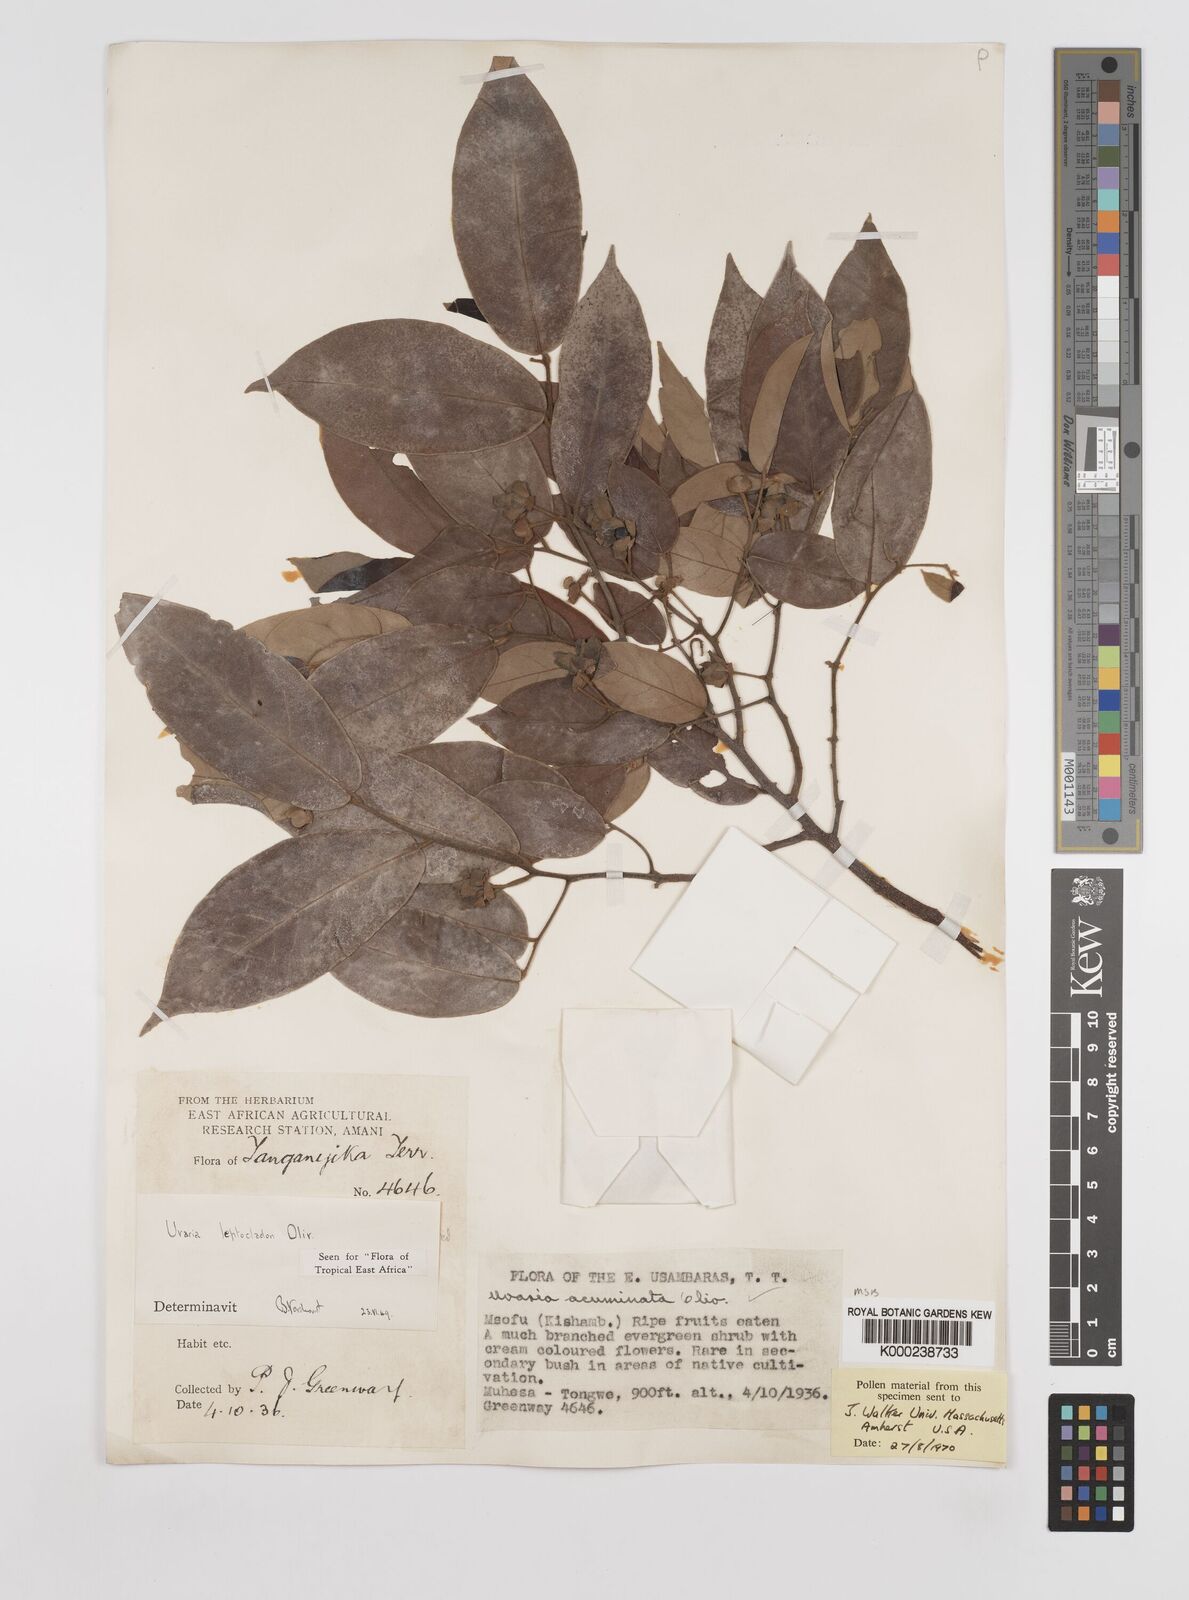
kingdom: Plantae
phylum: Tracheophyta
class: Magnoliopsida
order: Magnoliales
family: Annonaceae
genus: Uvaria
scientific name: Uvaria leptocladon
